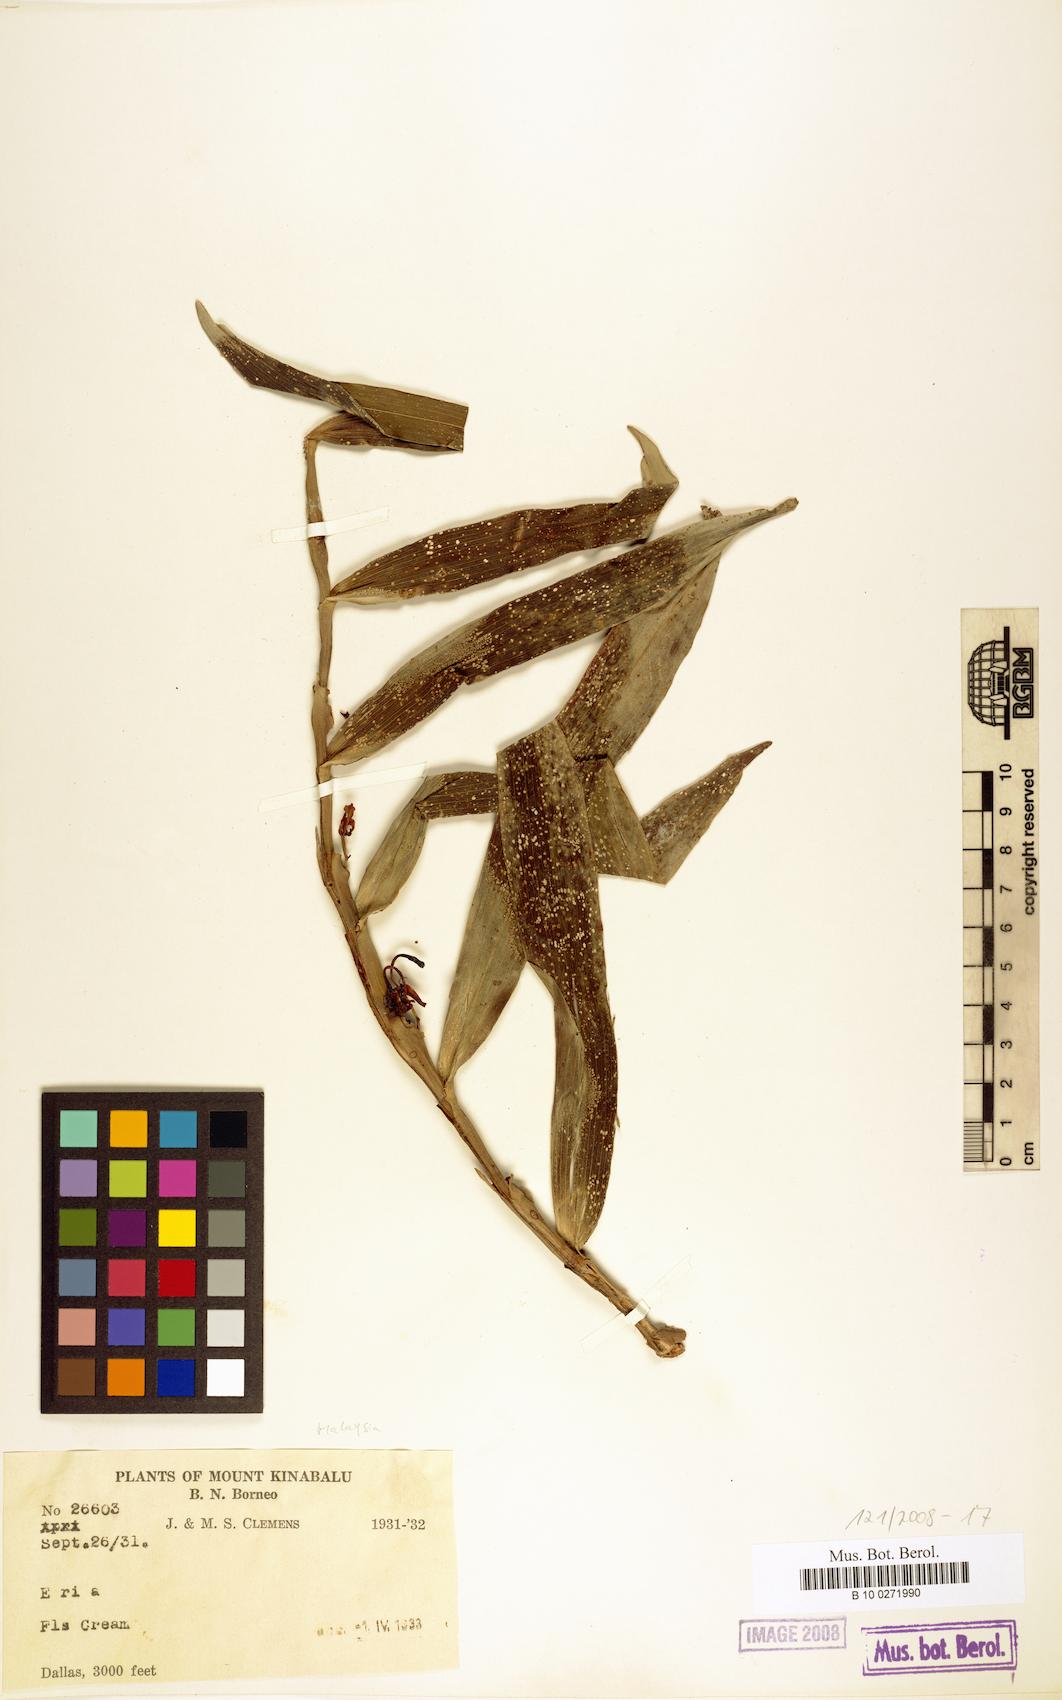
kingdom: Plantae
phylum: Tracheophyta
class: Liliopsida
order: Asparagales
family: Orchidaceae
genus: Eria
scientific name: Eria
